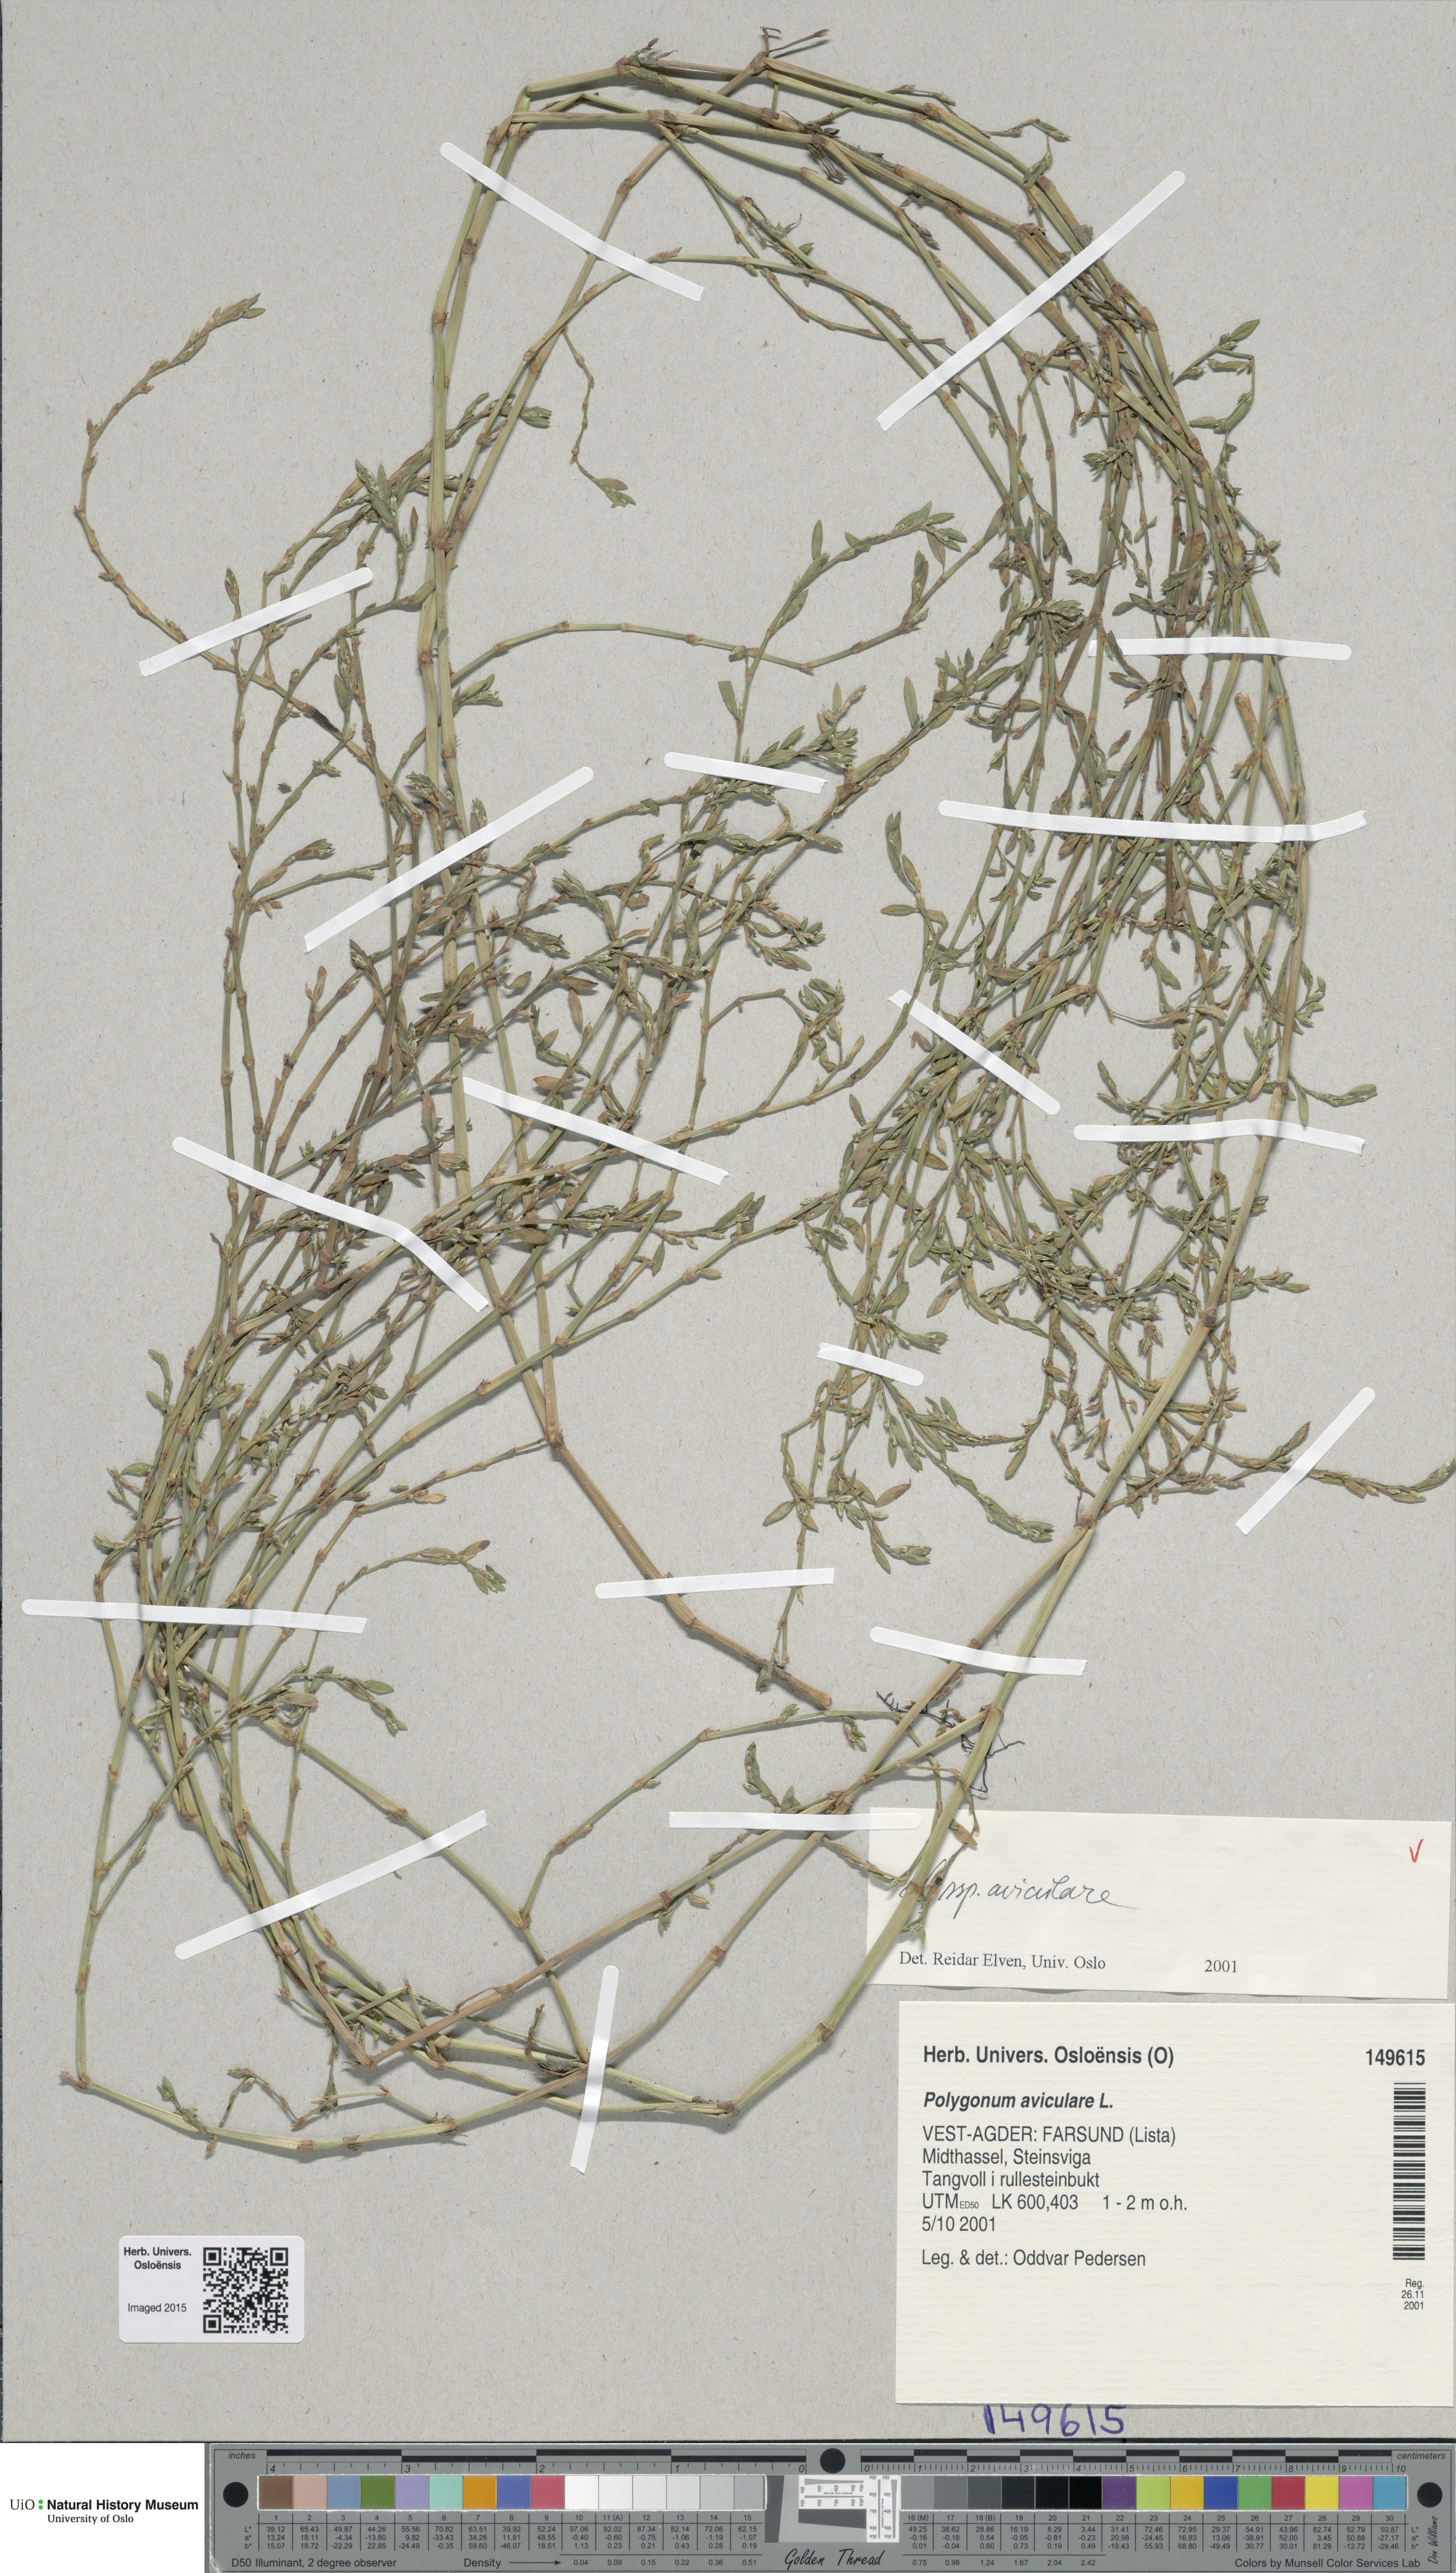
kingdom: Plantae
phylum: Tracheophyta
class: Magnoliopsida
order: Caryophyllales
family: Polygonaceae
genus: Polygonum
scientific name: Polygonum aviculare
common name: Prostrate knotweed
